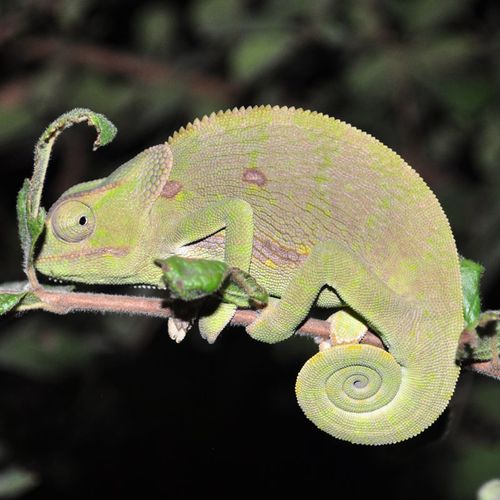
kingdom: Animalia
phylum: Chordata
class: Squamata
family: Chamaeleonidae
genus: Chamaeleo
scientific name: Chamaeleo dilepis
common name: Flapneck chameleon
